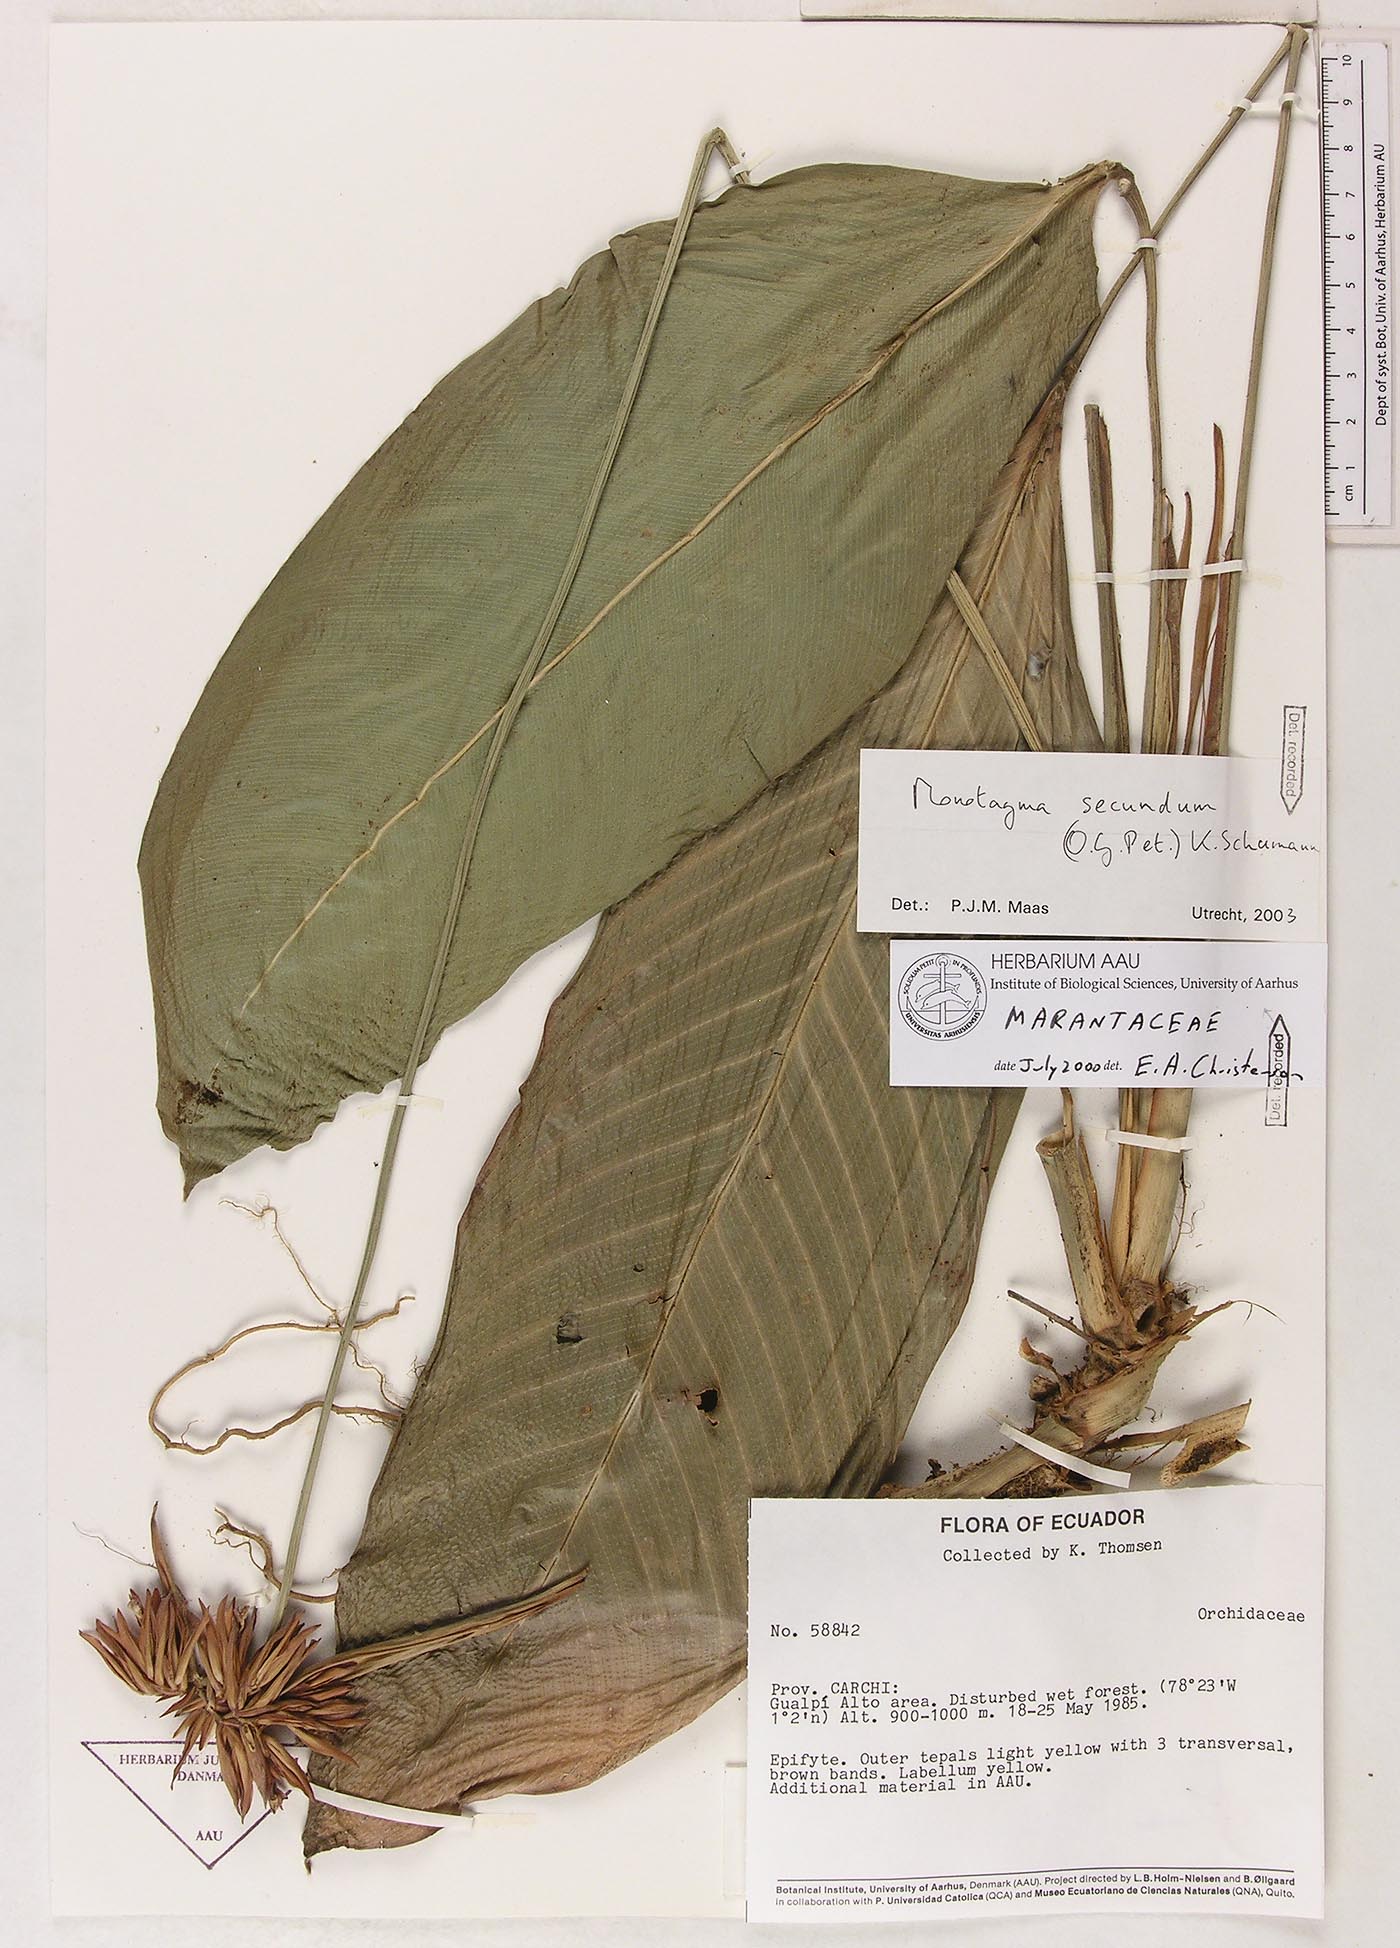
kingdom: Plantae
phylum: Tracheophyta
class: Liliopsida
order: Zingiberales
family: Marantaceae
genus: Monotagma
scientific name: Monotagma secundum
